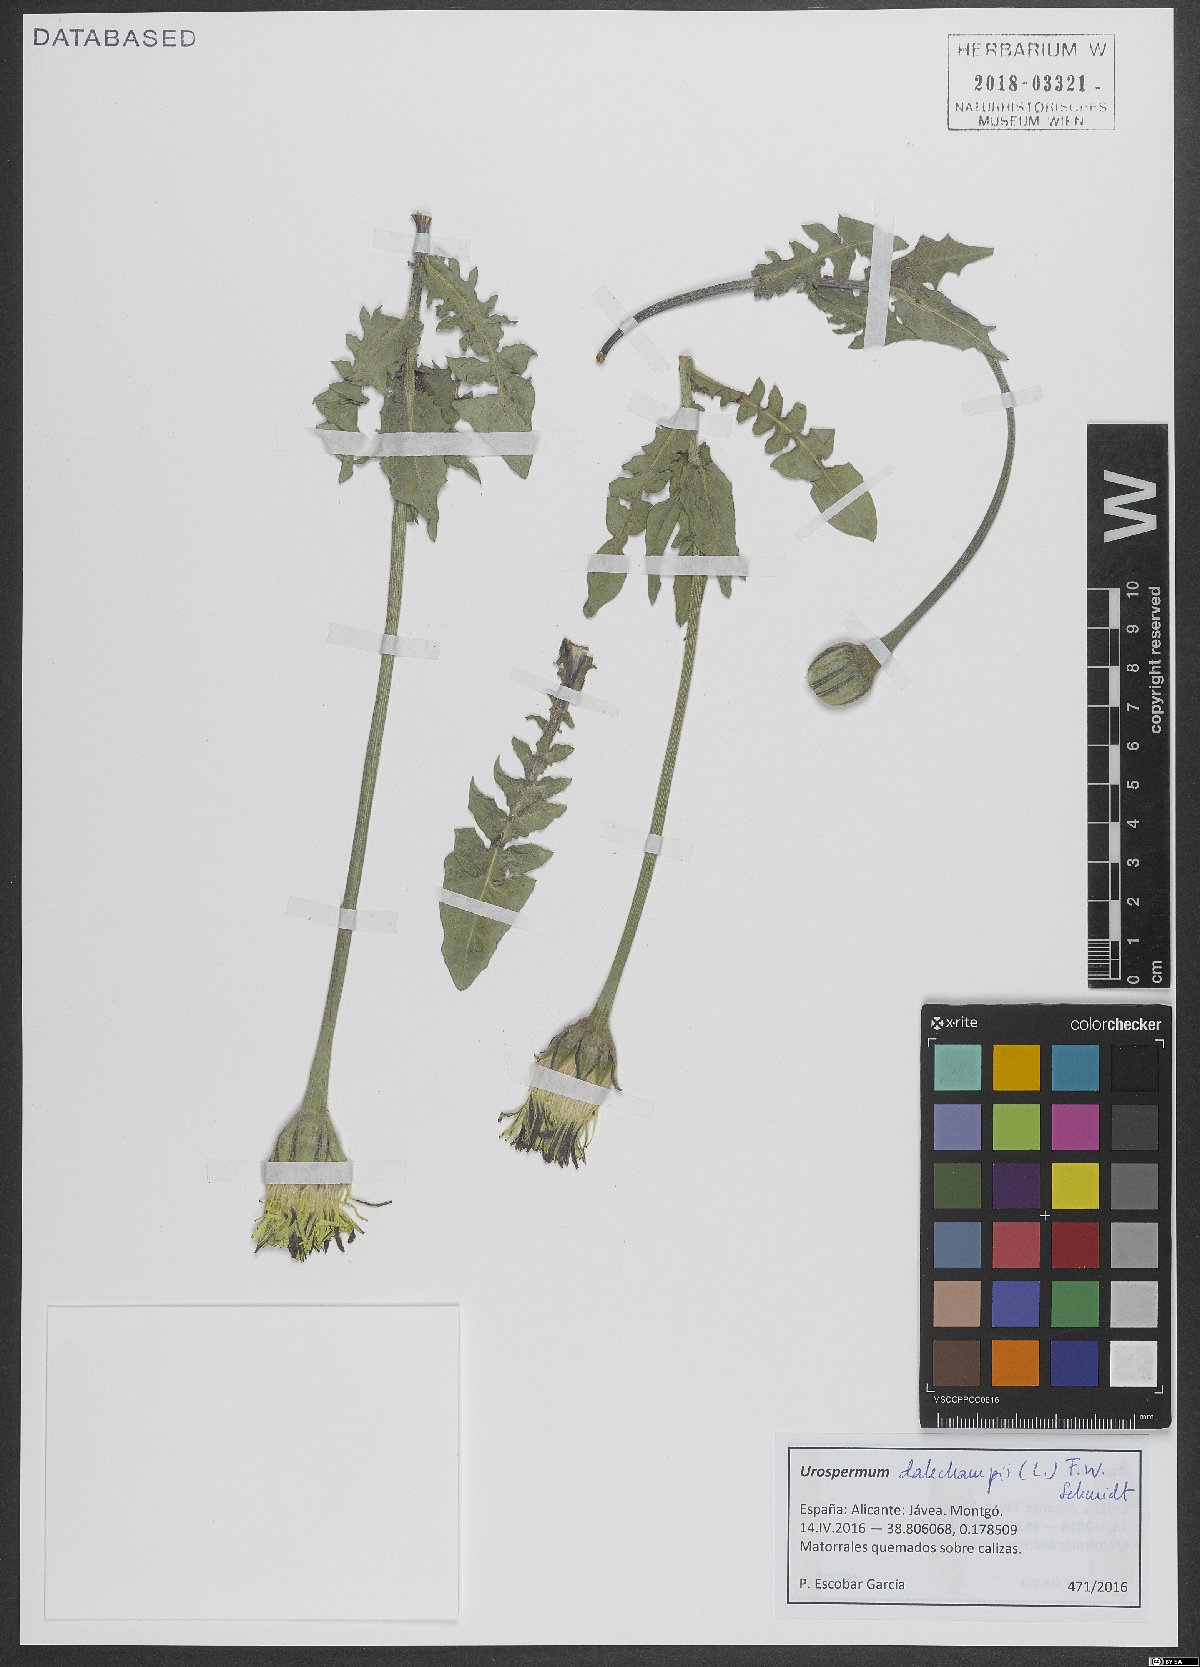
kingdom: Plantae
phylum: Tracheophyta
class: Magnoliopsida
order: Asterales
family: Asteraceae
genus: Urospermum
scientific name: Urospermum dalechampii
